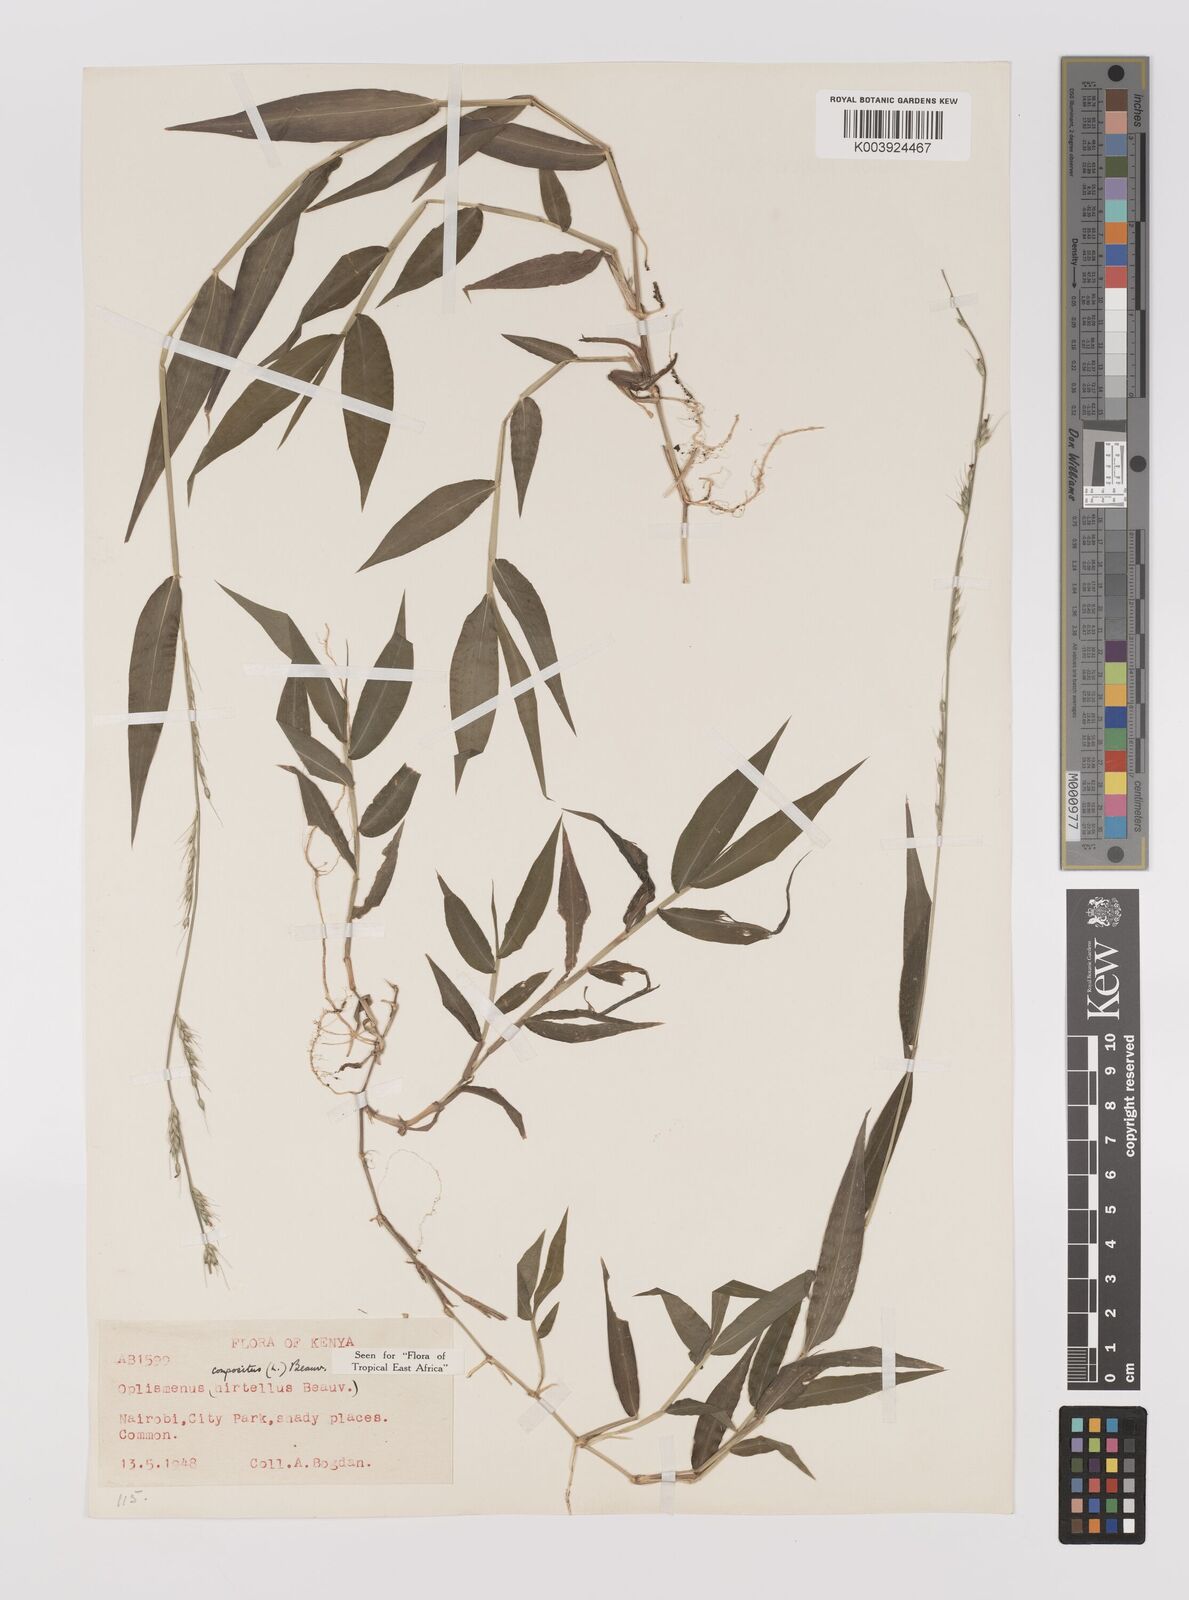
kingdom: Plantae
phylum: Tracheophyta
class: Liliopsida
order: Poales
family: Poaceae
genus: Oplismenus
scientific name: Oplismenus compositus
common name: Running mountain grass
